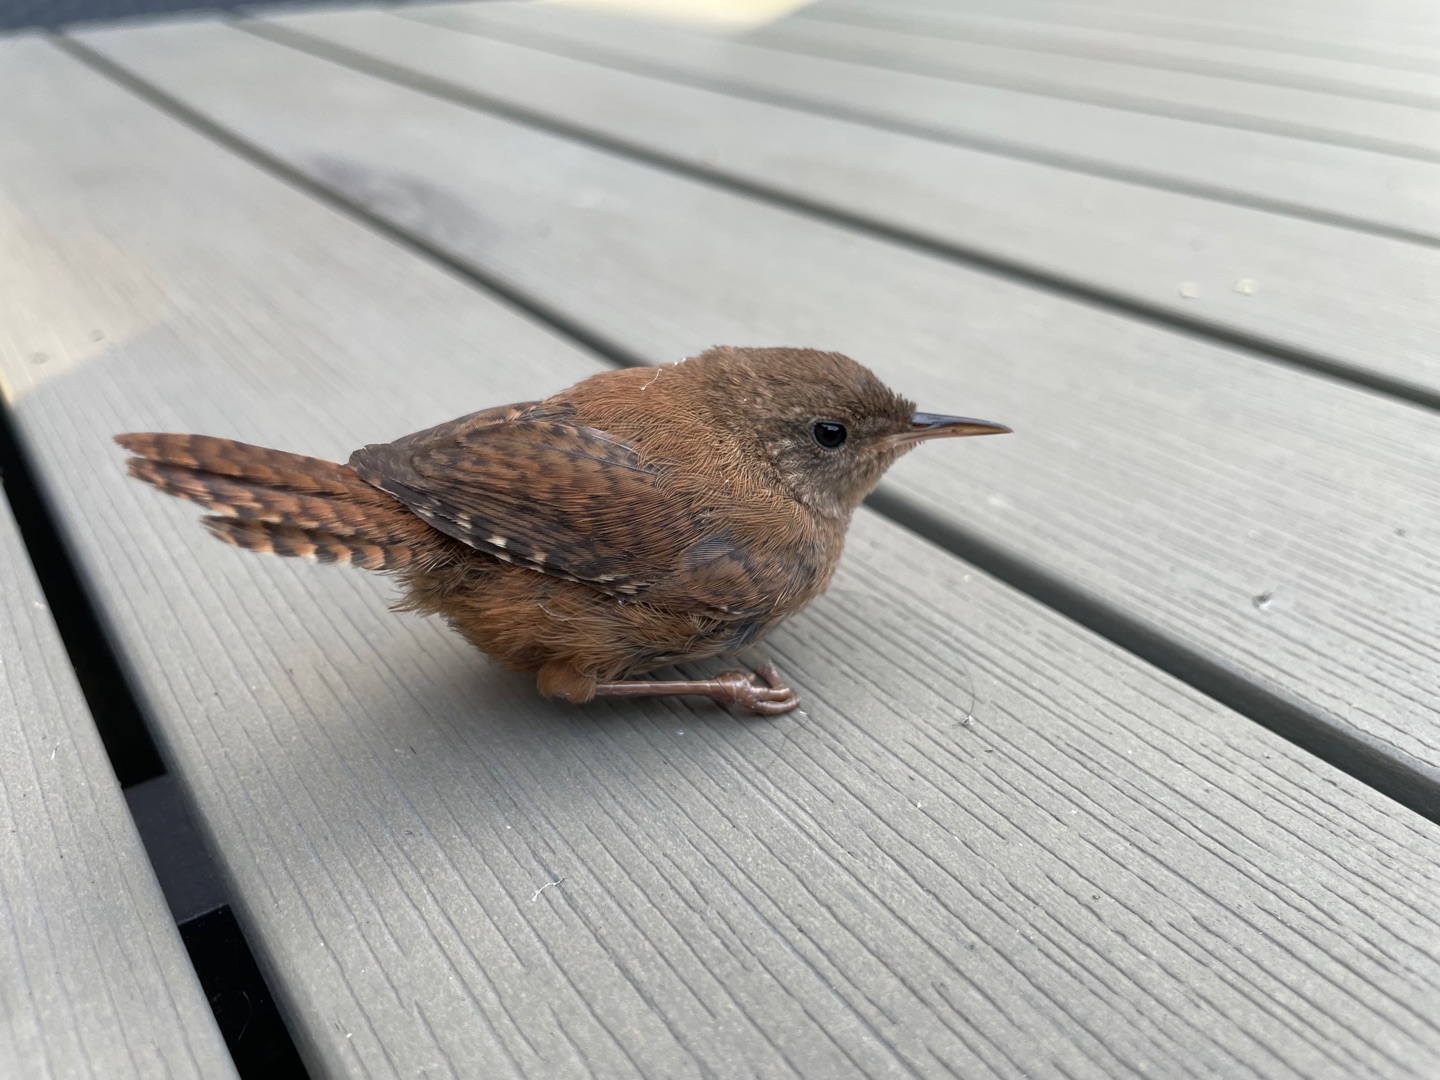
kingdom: Animalia
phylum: Chordata
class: Aves
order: Passeriformes
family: Troglodytidae
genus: Troglodytes
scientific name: Troglodytes troglodytes
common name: Gærdesmutte
